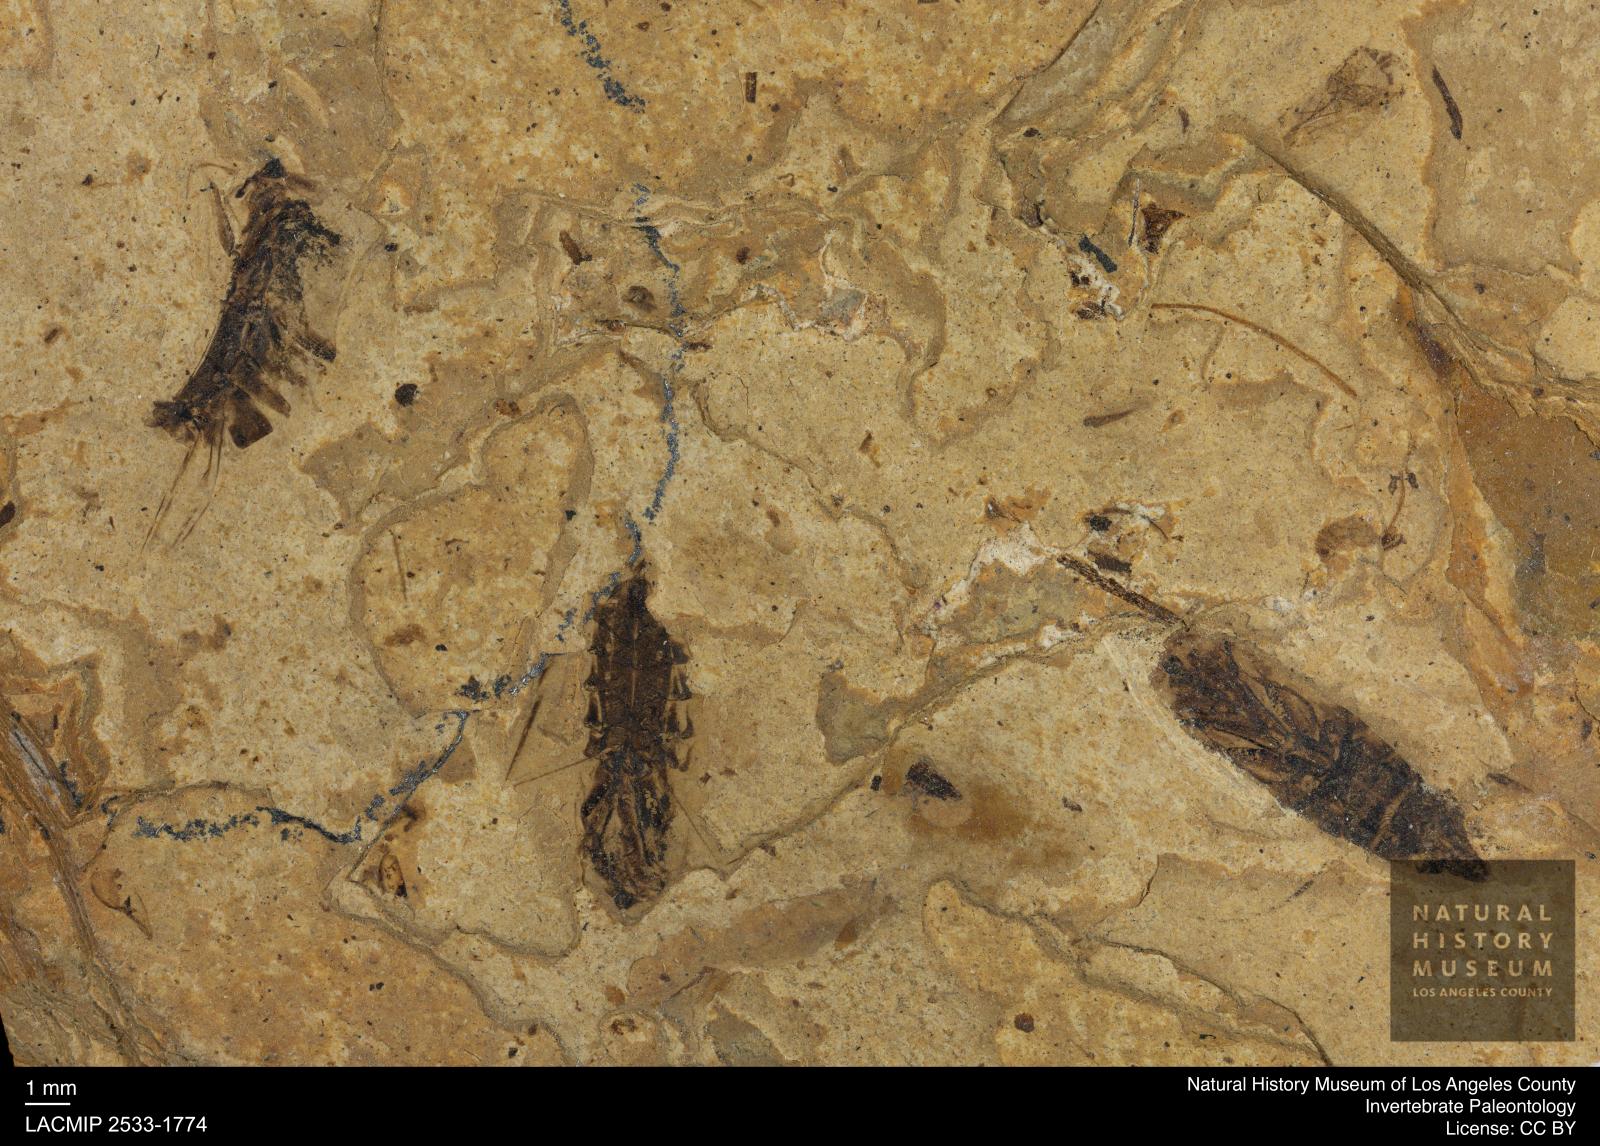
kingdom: Animalia
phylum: Arthropoda
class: Insecta
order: Hemiptera
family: Notonectidae
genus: Notonecta
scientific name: Notonecta
